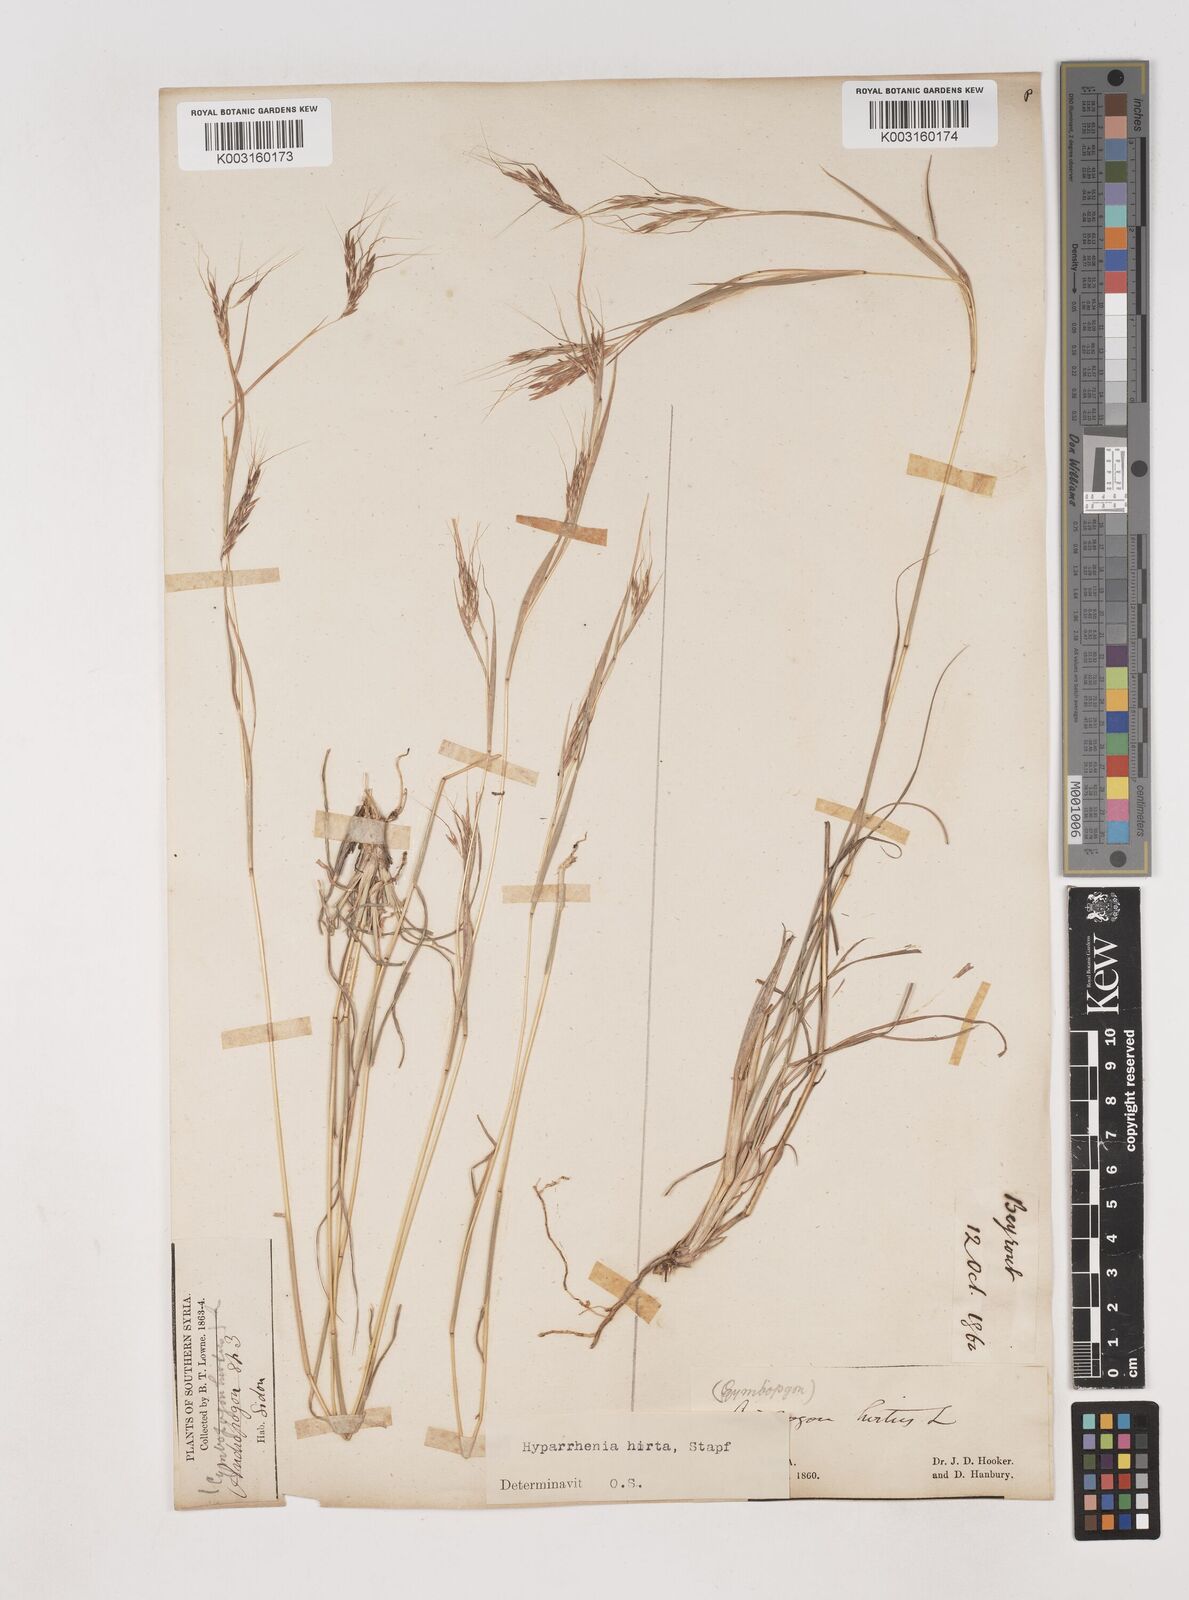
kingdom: Plantae
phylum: Tracheophyta
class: Liliopsida
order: Poales
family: Poaceae
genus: Hyparrhenia
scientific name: Hyparrhenia hirta
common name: Thatching grass
